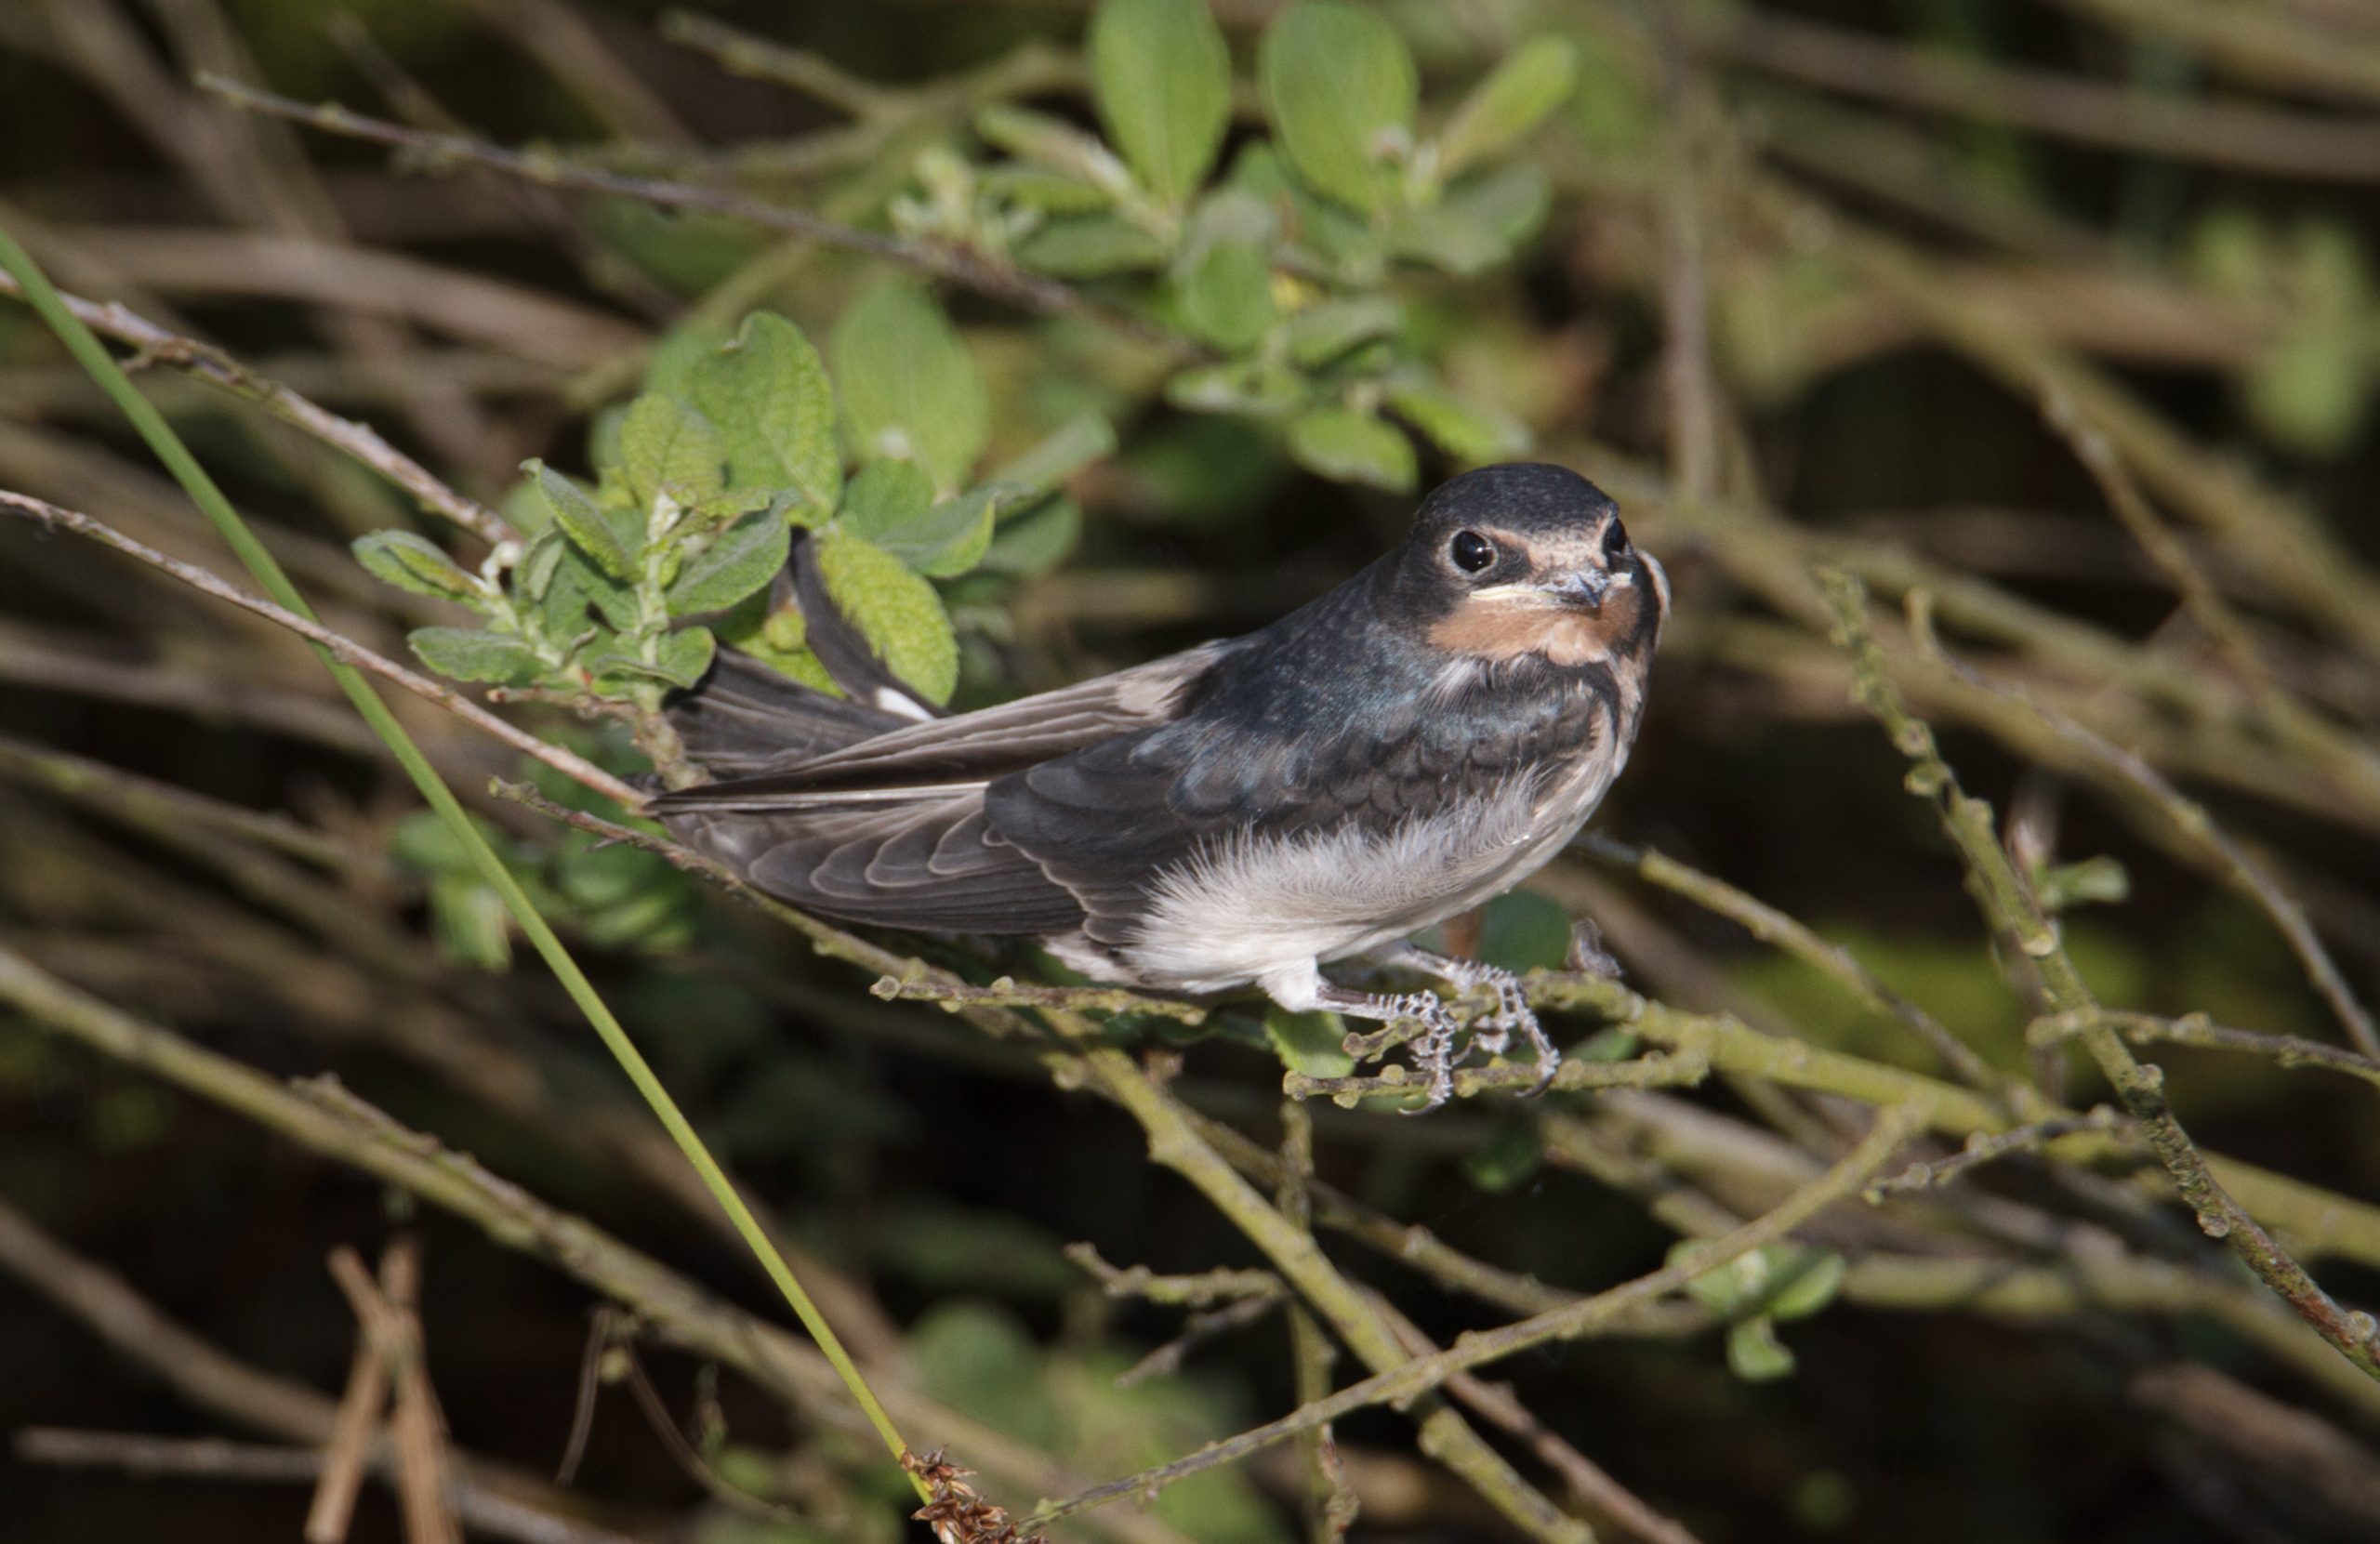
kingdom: Animalia
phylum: Chordata
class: Aves
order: Passeriformes
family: Hirundinidae
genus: Hirundo
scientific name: Hirundo rustica
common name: Landsvale
